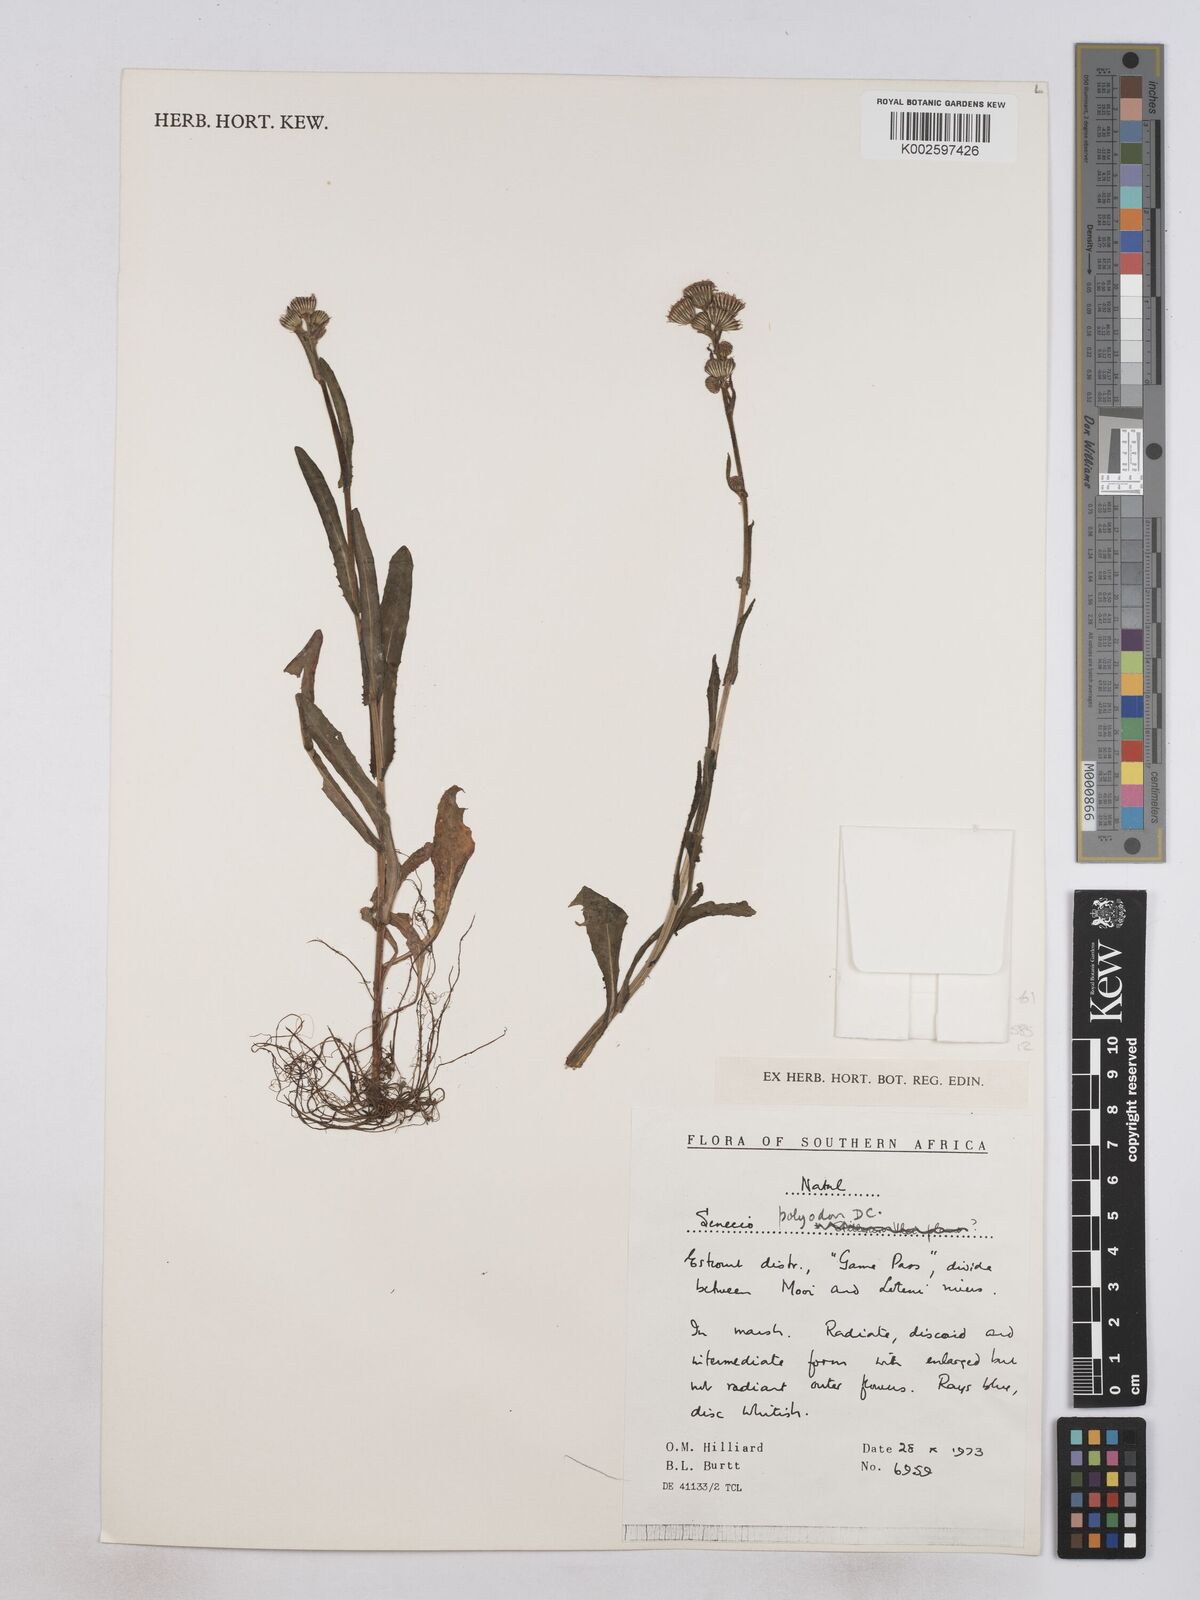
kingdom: Plantae
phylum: Tracheophyta
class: Magnoliopsida
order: Asterales
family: Asteraceae
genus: Senecio
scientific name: Senecio polyodon
